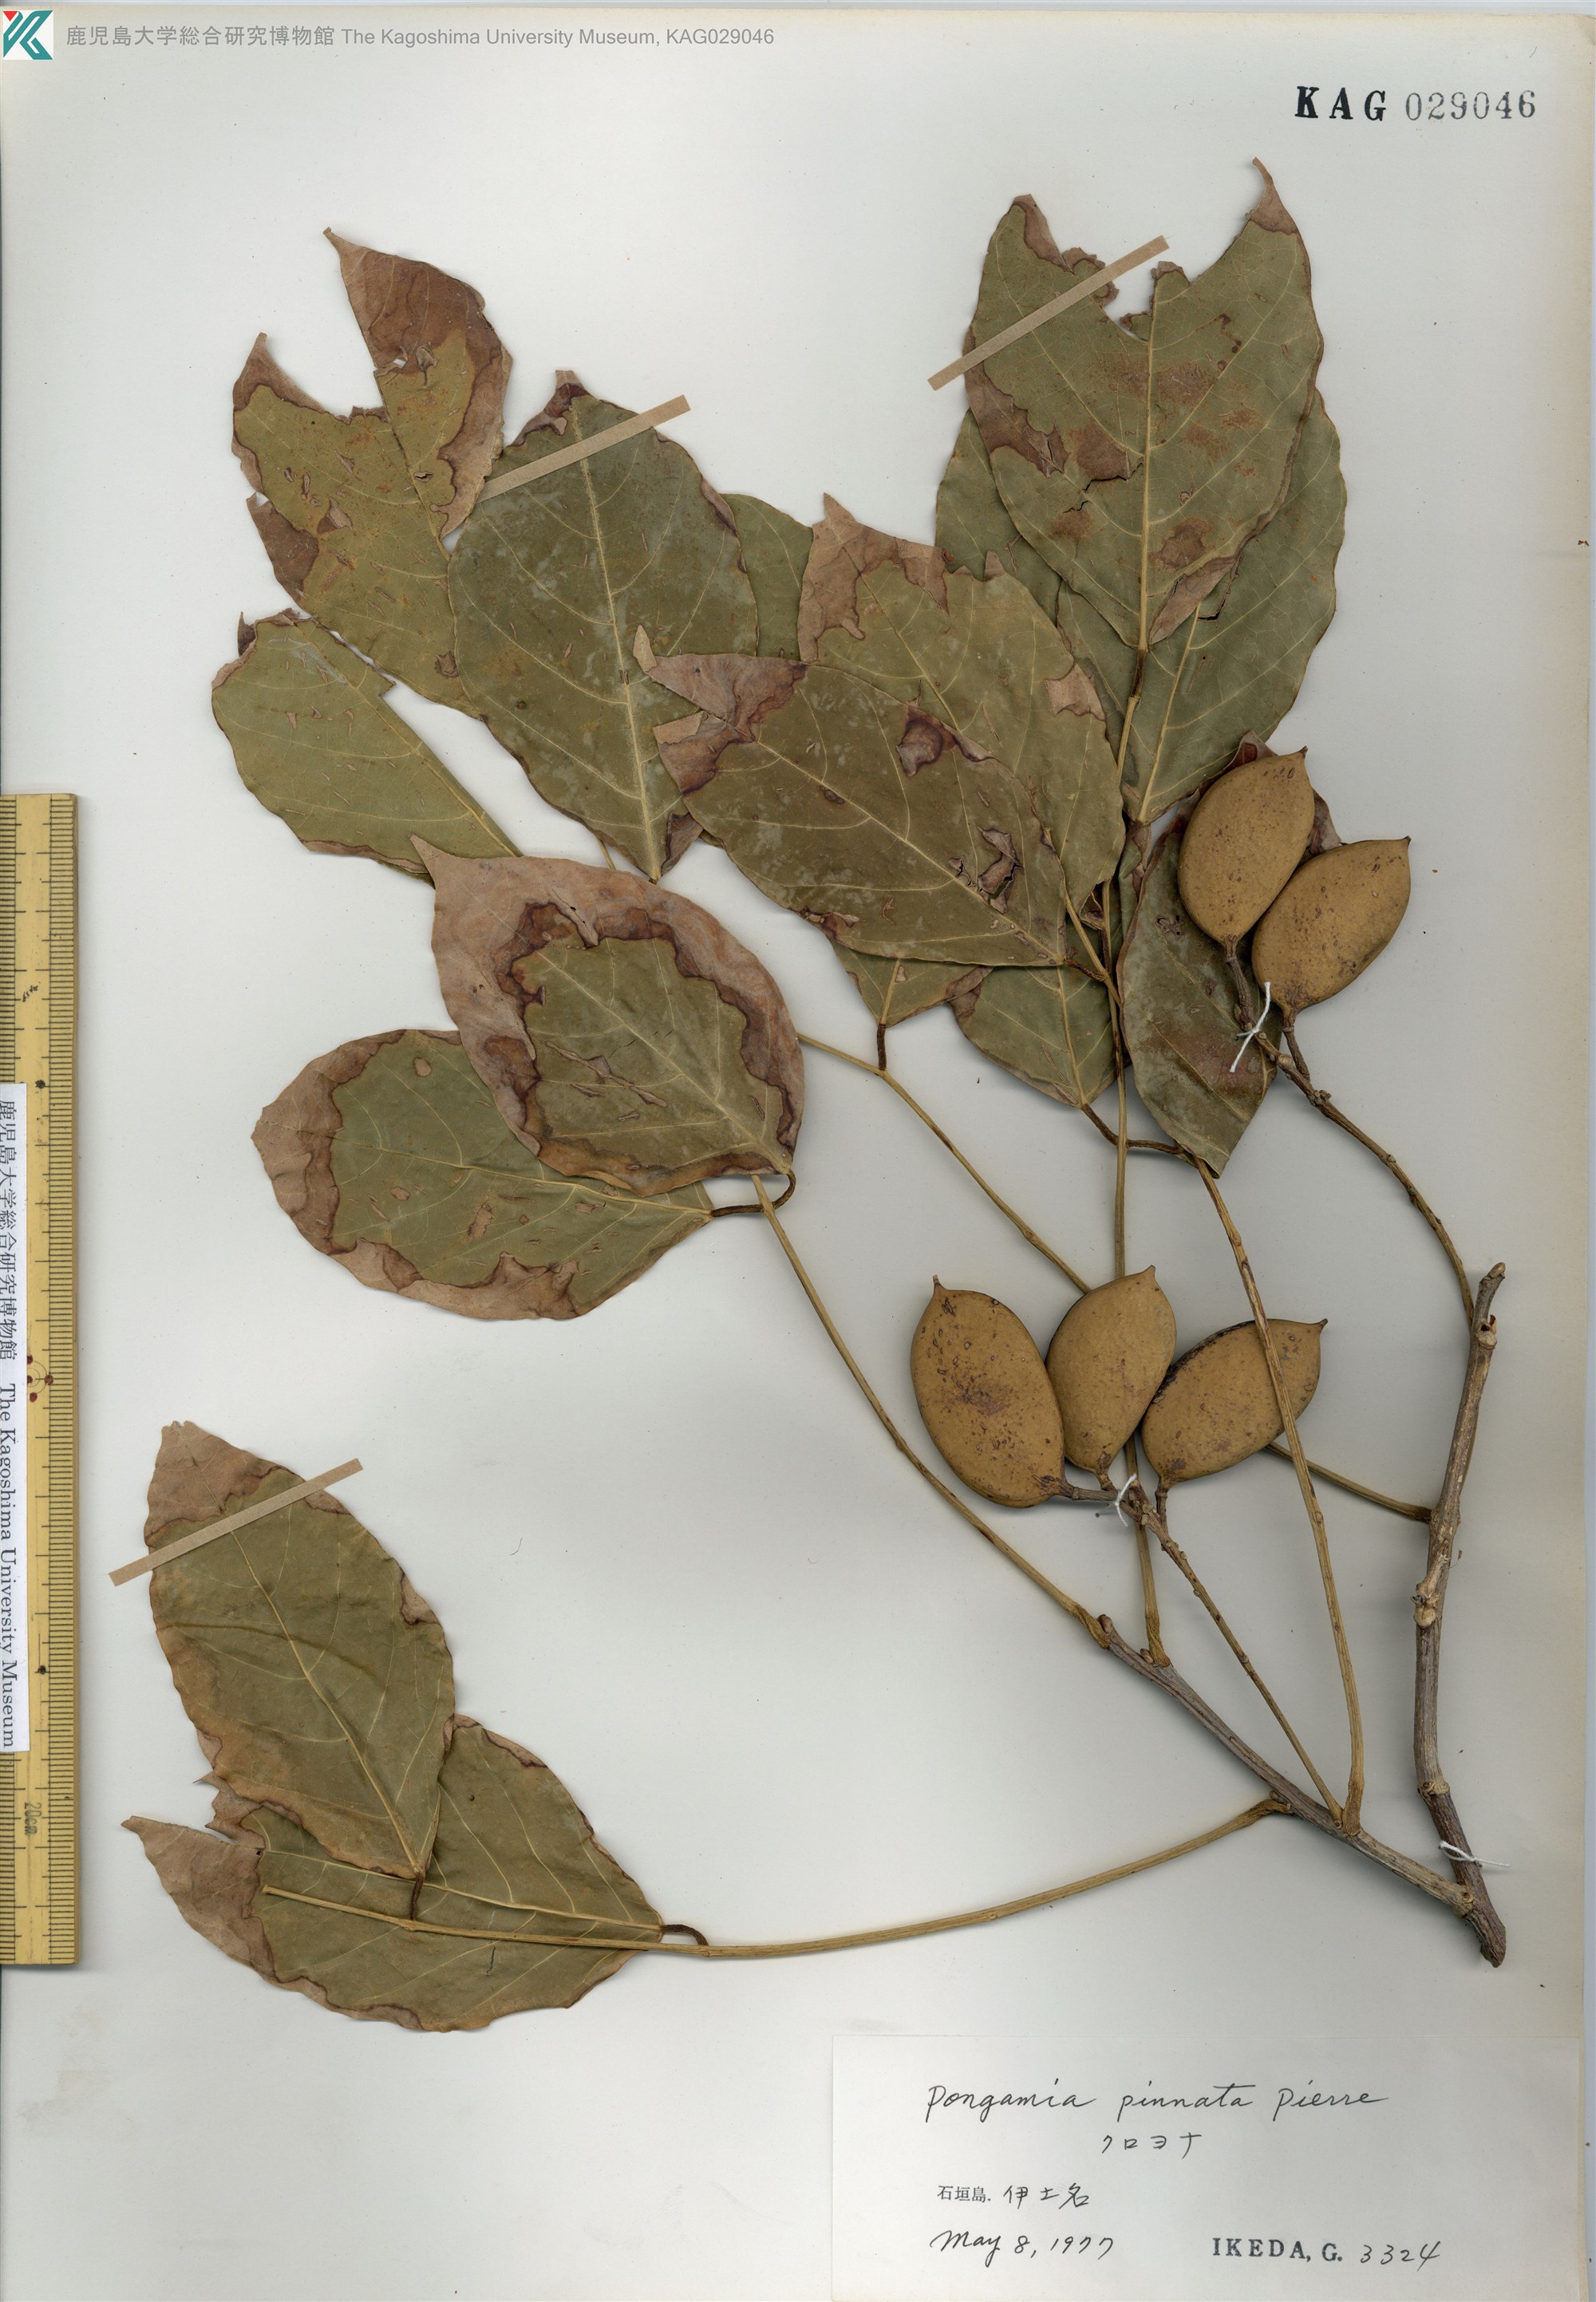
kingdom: Plantae
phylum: Tracheophyta
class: Magnoliopsida
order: Fabales
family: Fabaceae
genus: Pongamia
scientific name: Pongamia pinnata
